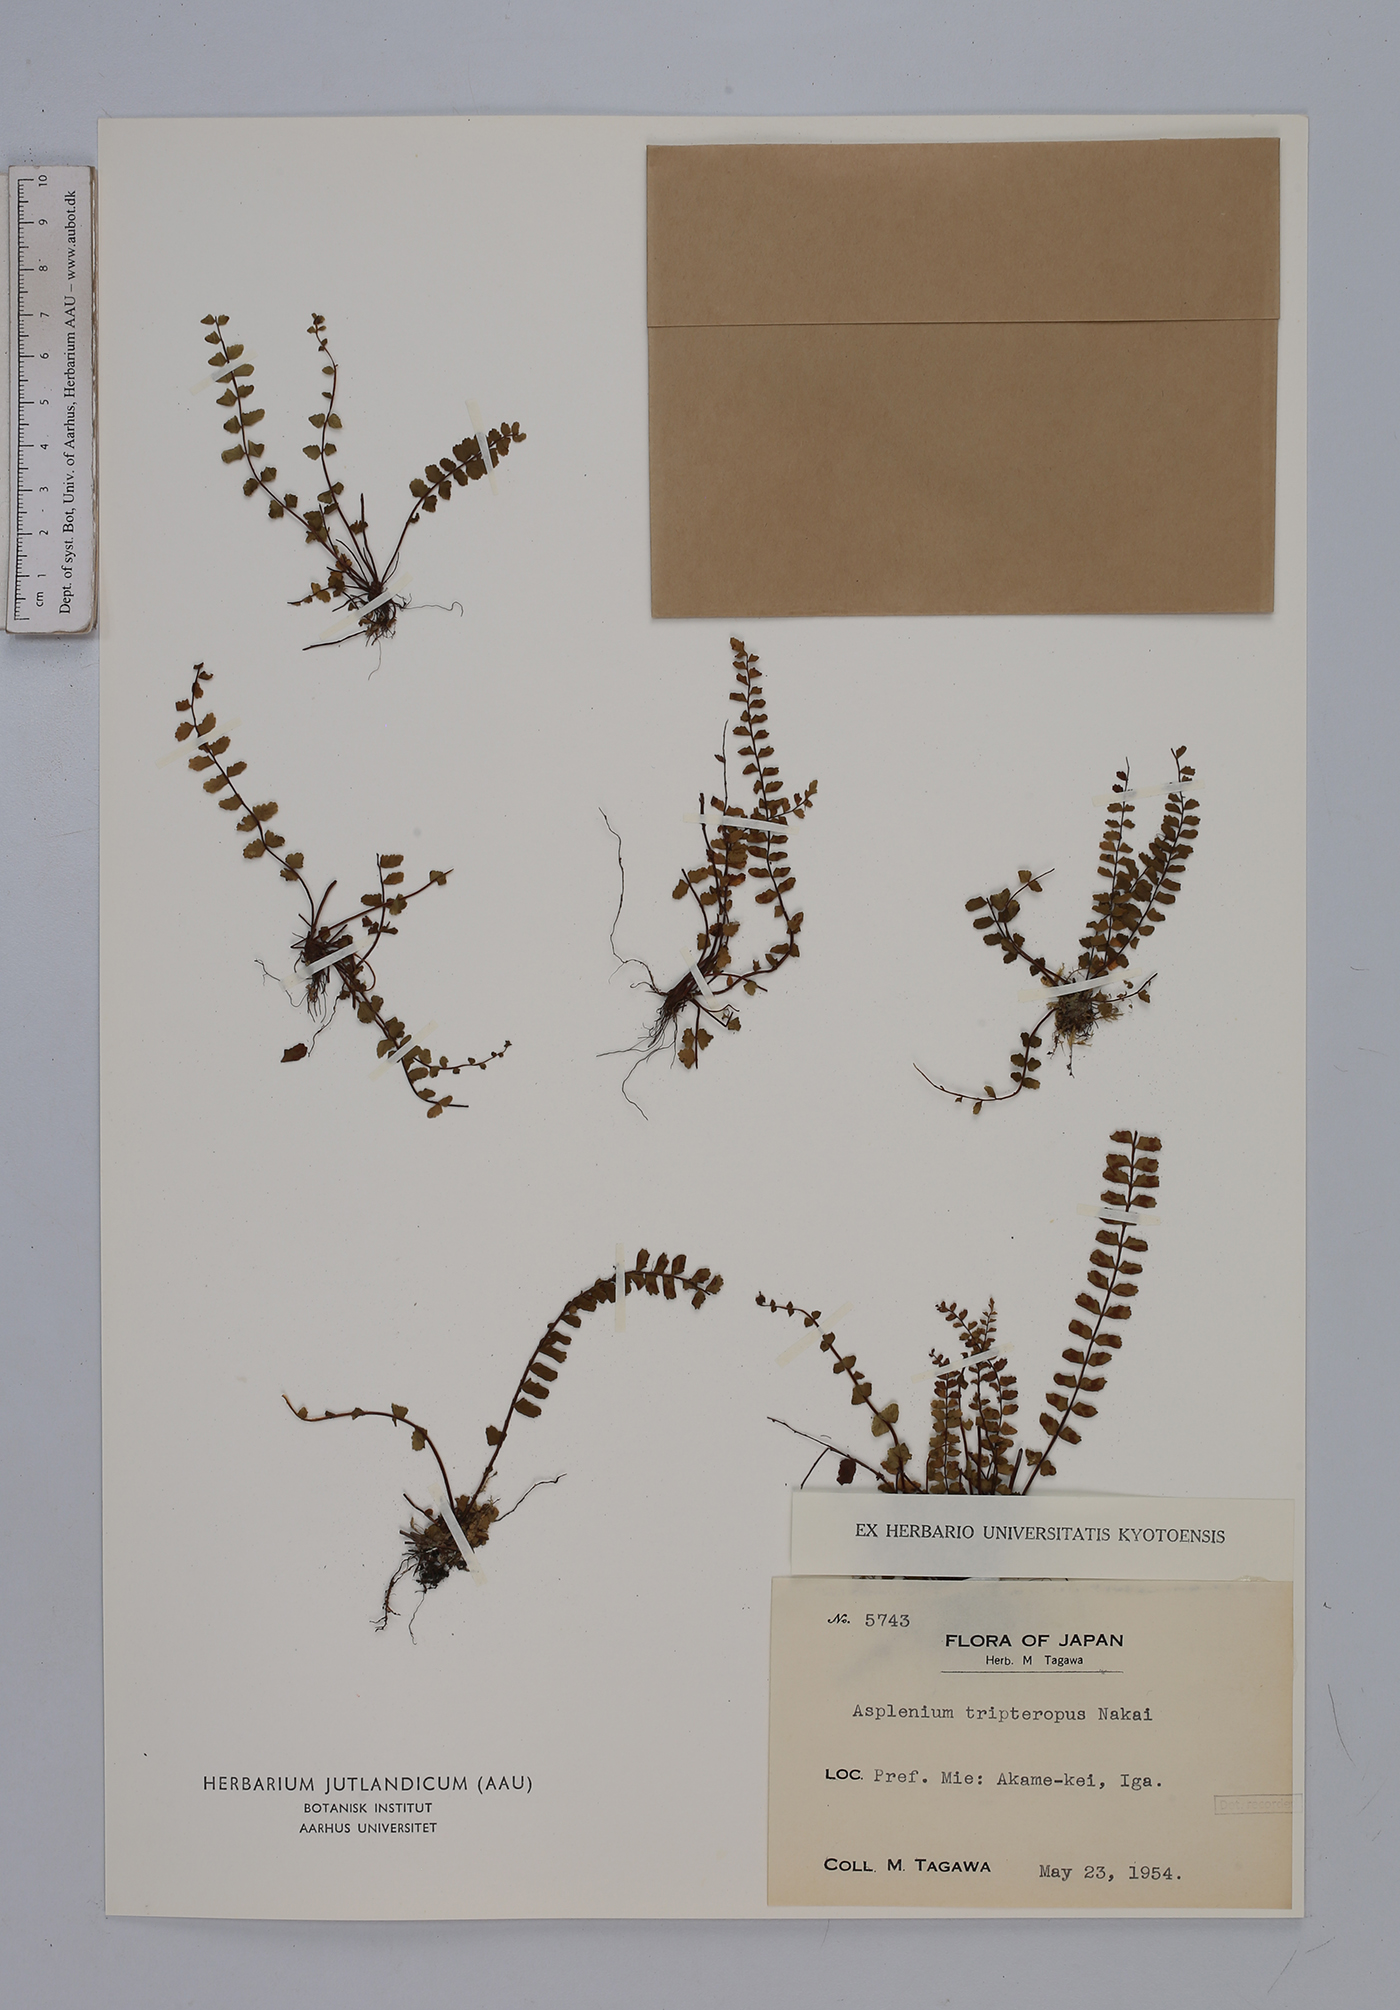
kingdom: Plantae
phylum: Tracheophyta
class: Polypodiopsida
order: Polypodiales
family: Aspleniaceae
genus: Asplenium
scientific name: Asplenium tripteropus
